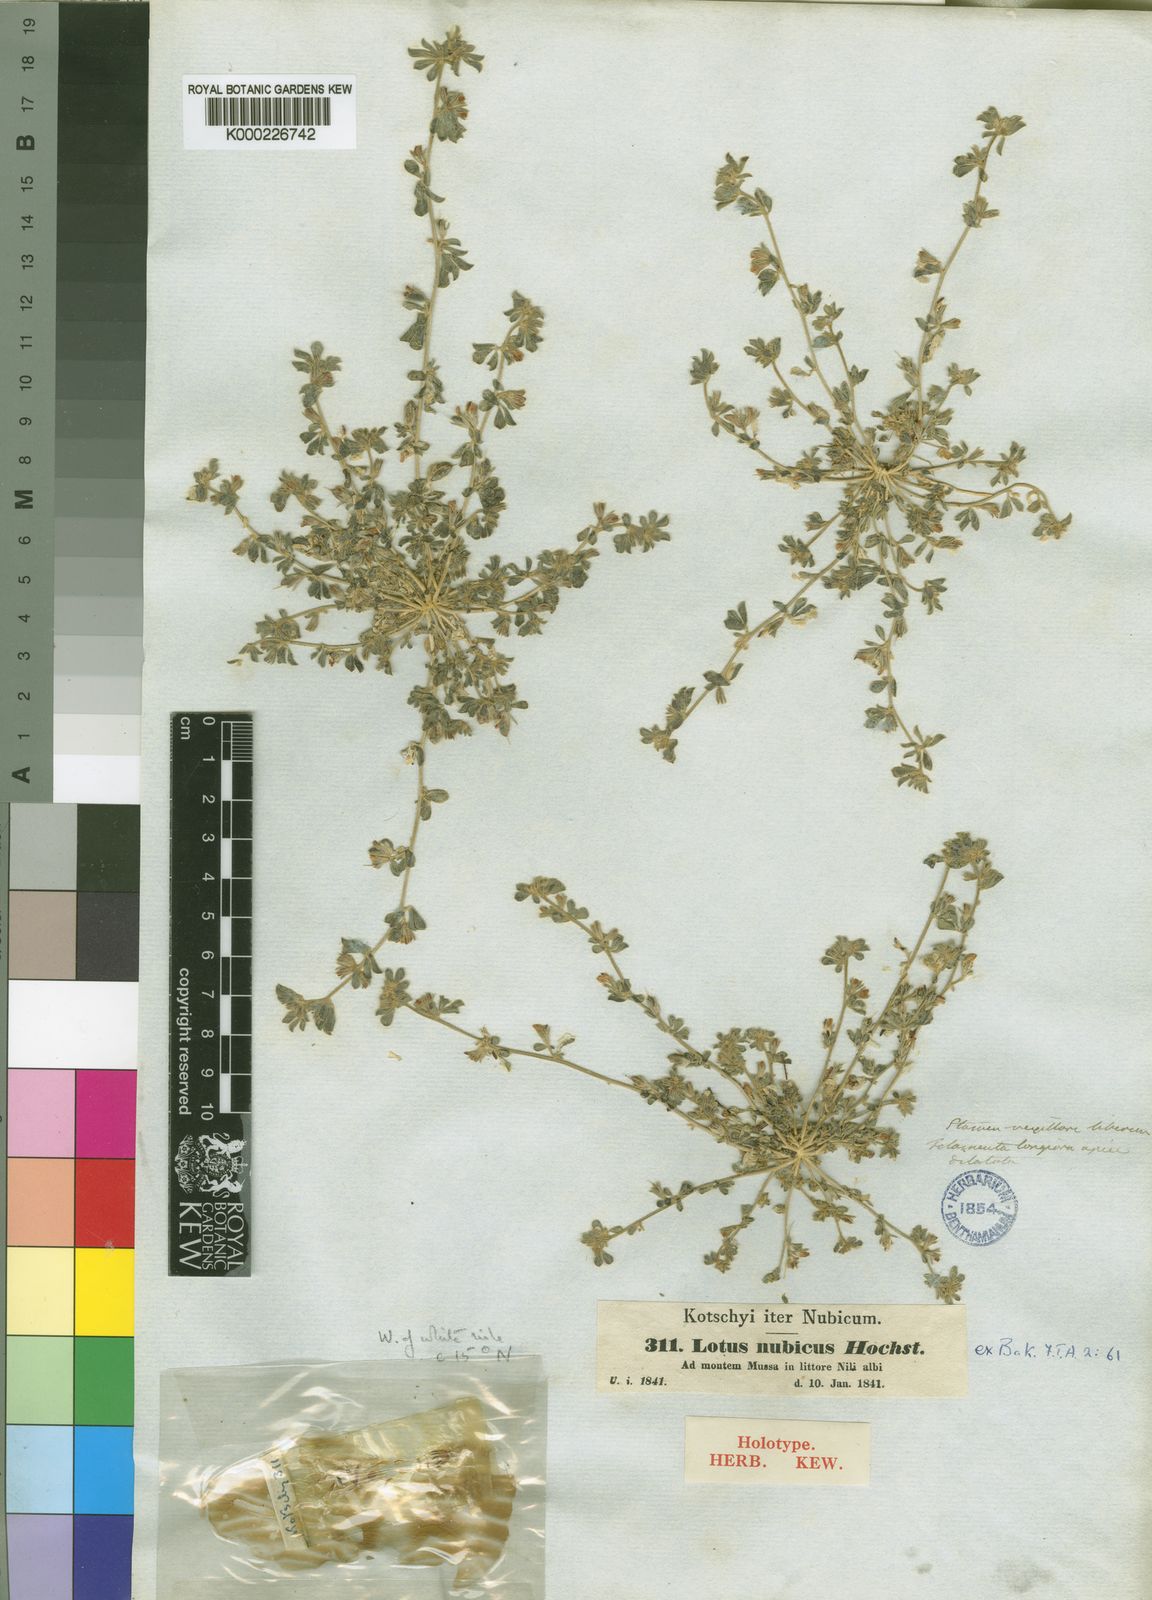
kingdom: Plantae
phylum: Tracheophyta
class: Magnoliopsida
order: Fabales
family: Fabaceae
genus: Lotus
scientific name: Lotus nubicus
